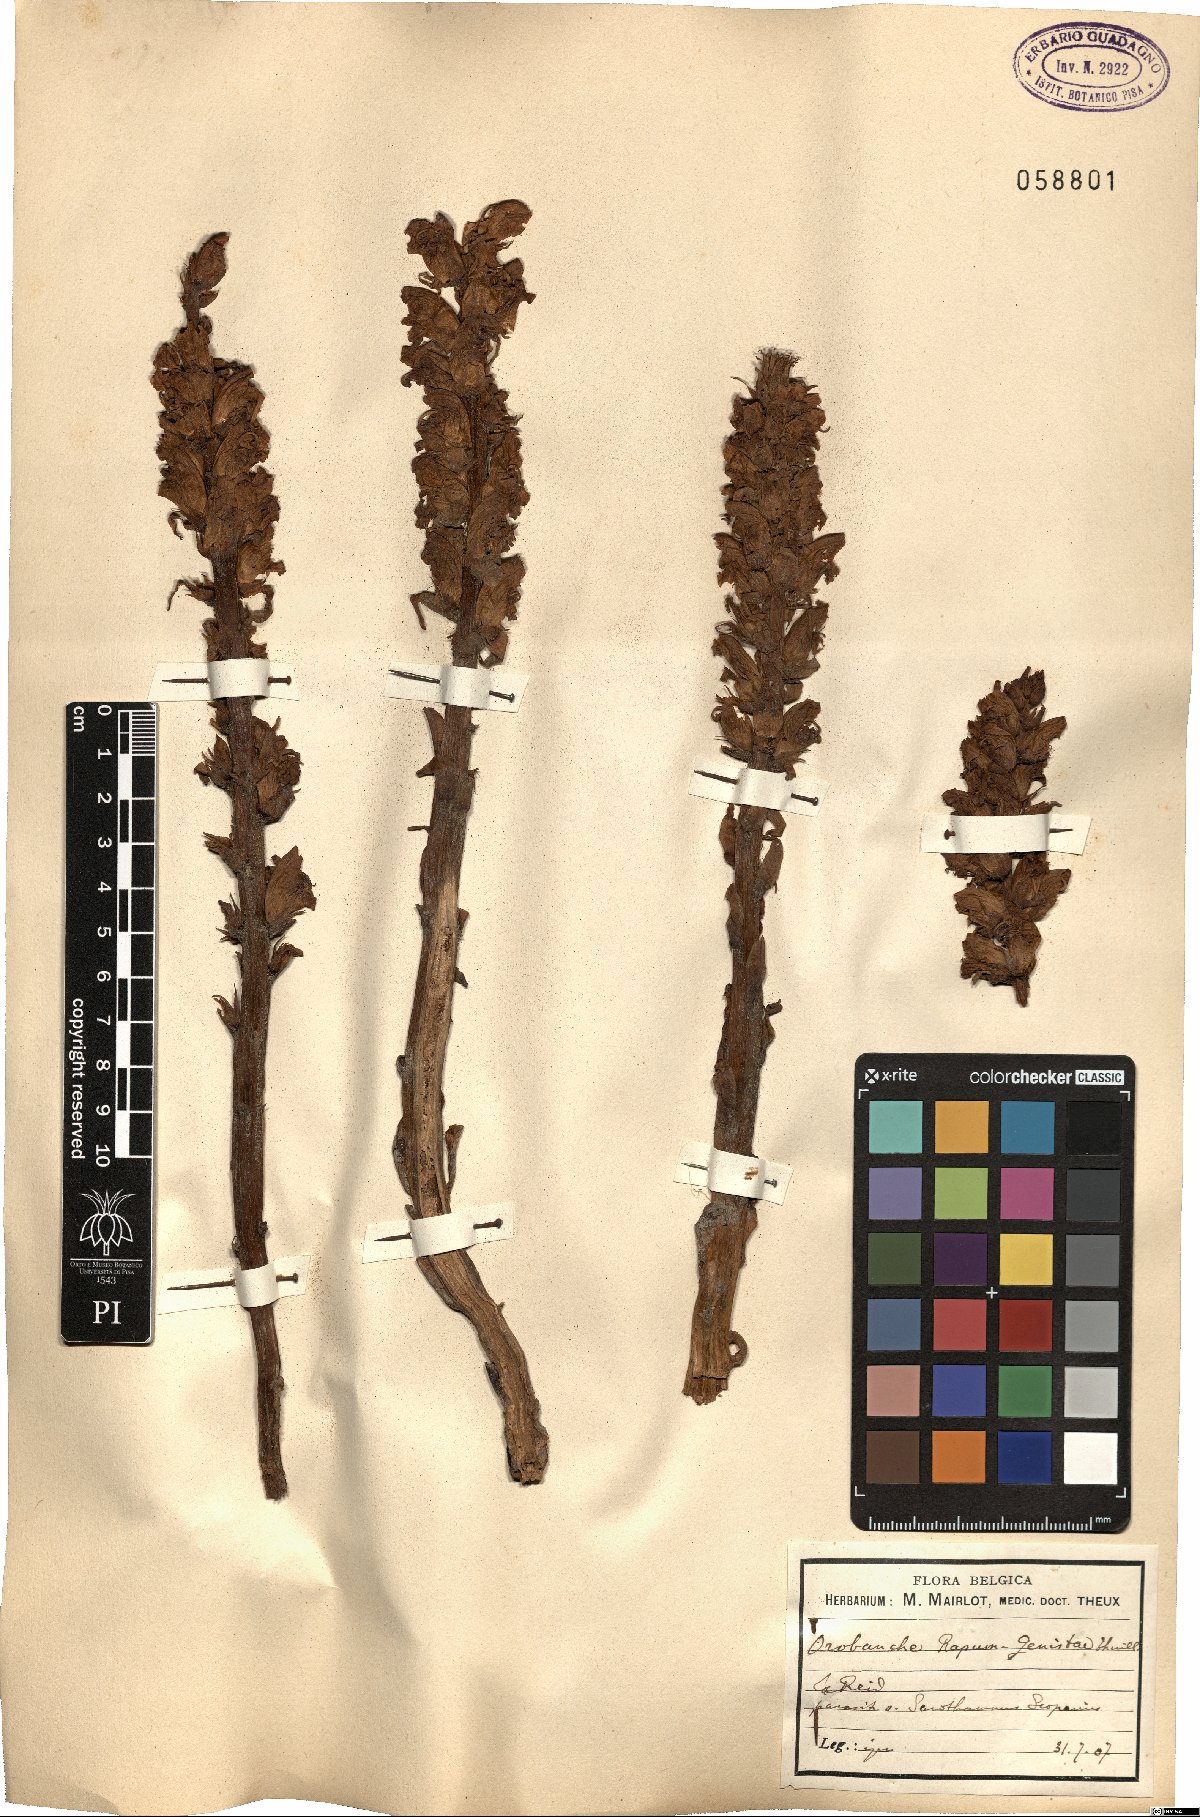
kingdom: Plantae
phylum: Tracheophyta
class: Magnoliopsida
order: Lamiales
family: Orobanchaceae
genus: Orobanche
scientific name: Orobanche rapum-genistae
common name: Greater broomrape
